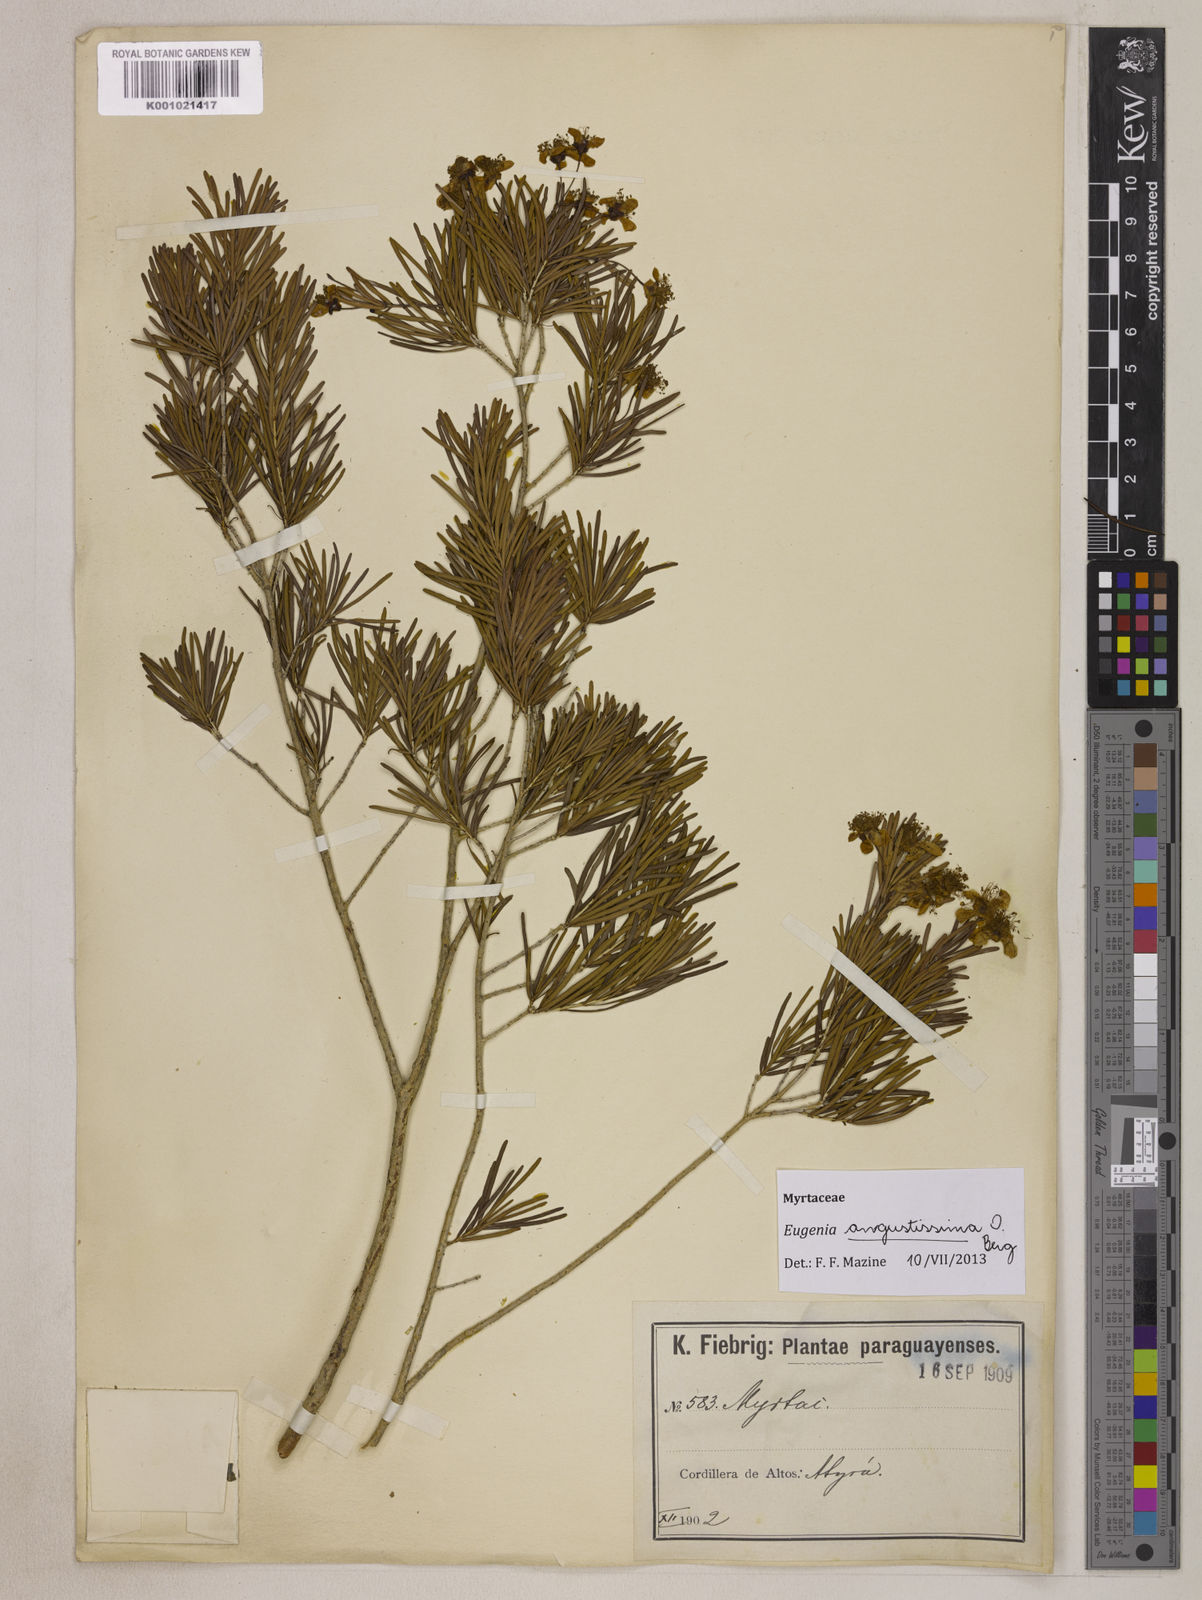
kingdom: Plantae
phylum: Tracheophyta
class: Magnoliopsida
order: Myrtales
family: Myrtaceae
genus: Eugenia
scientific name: Eugenia angustissima
